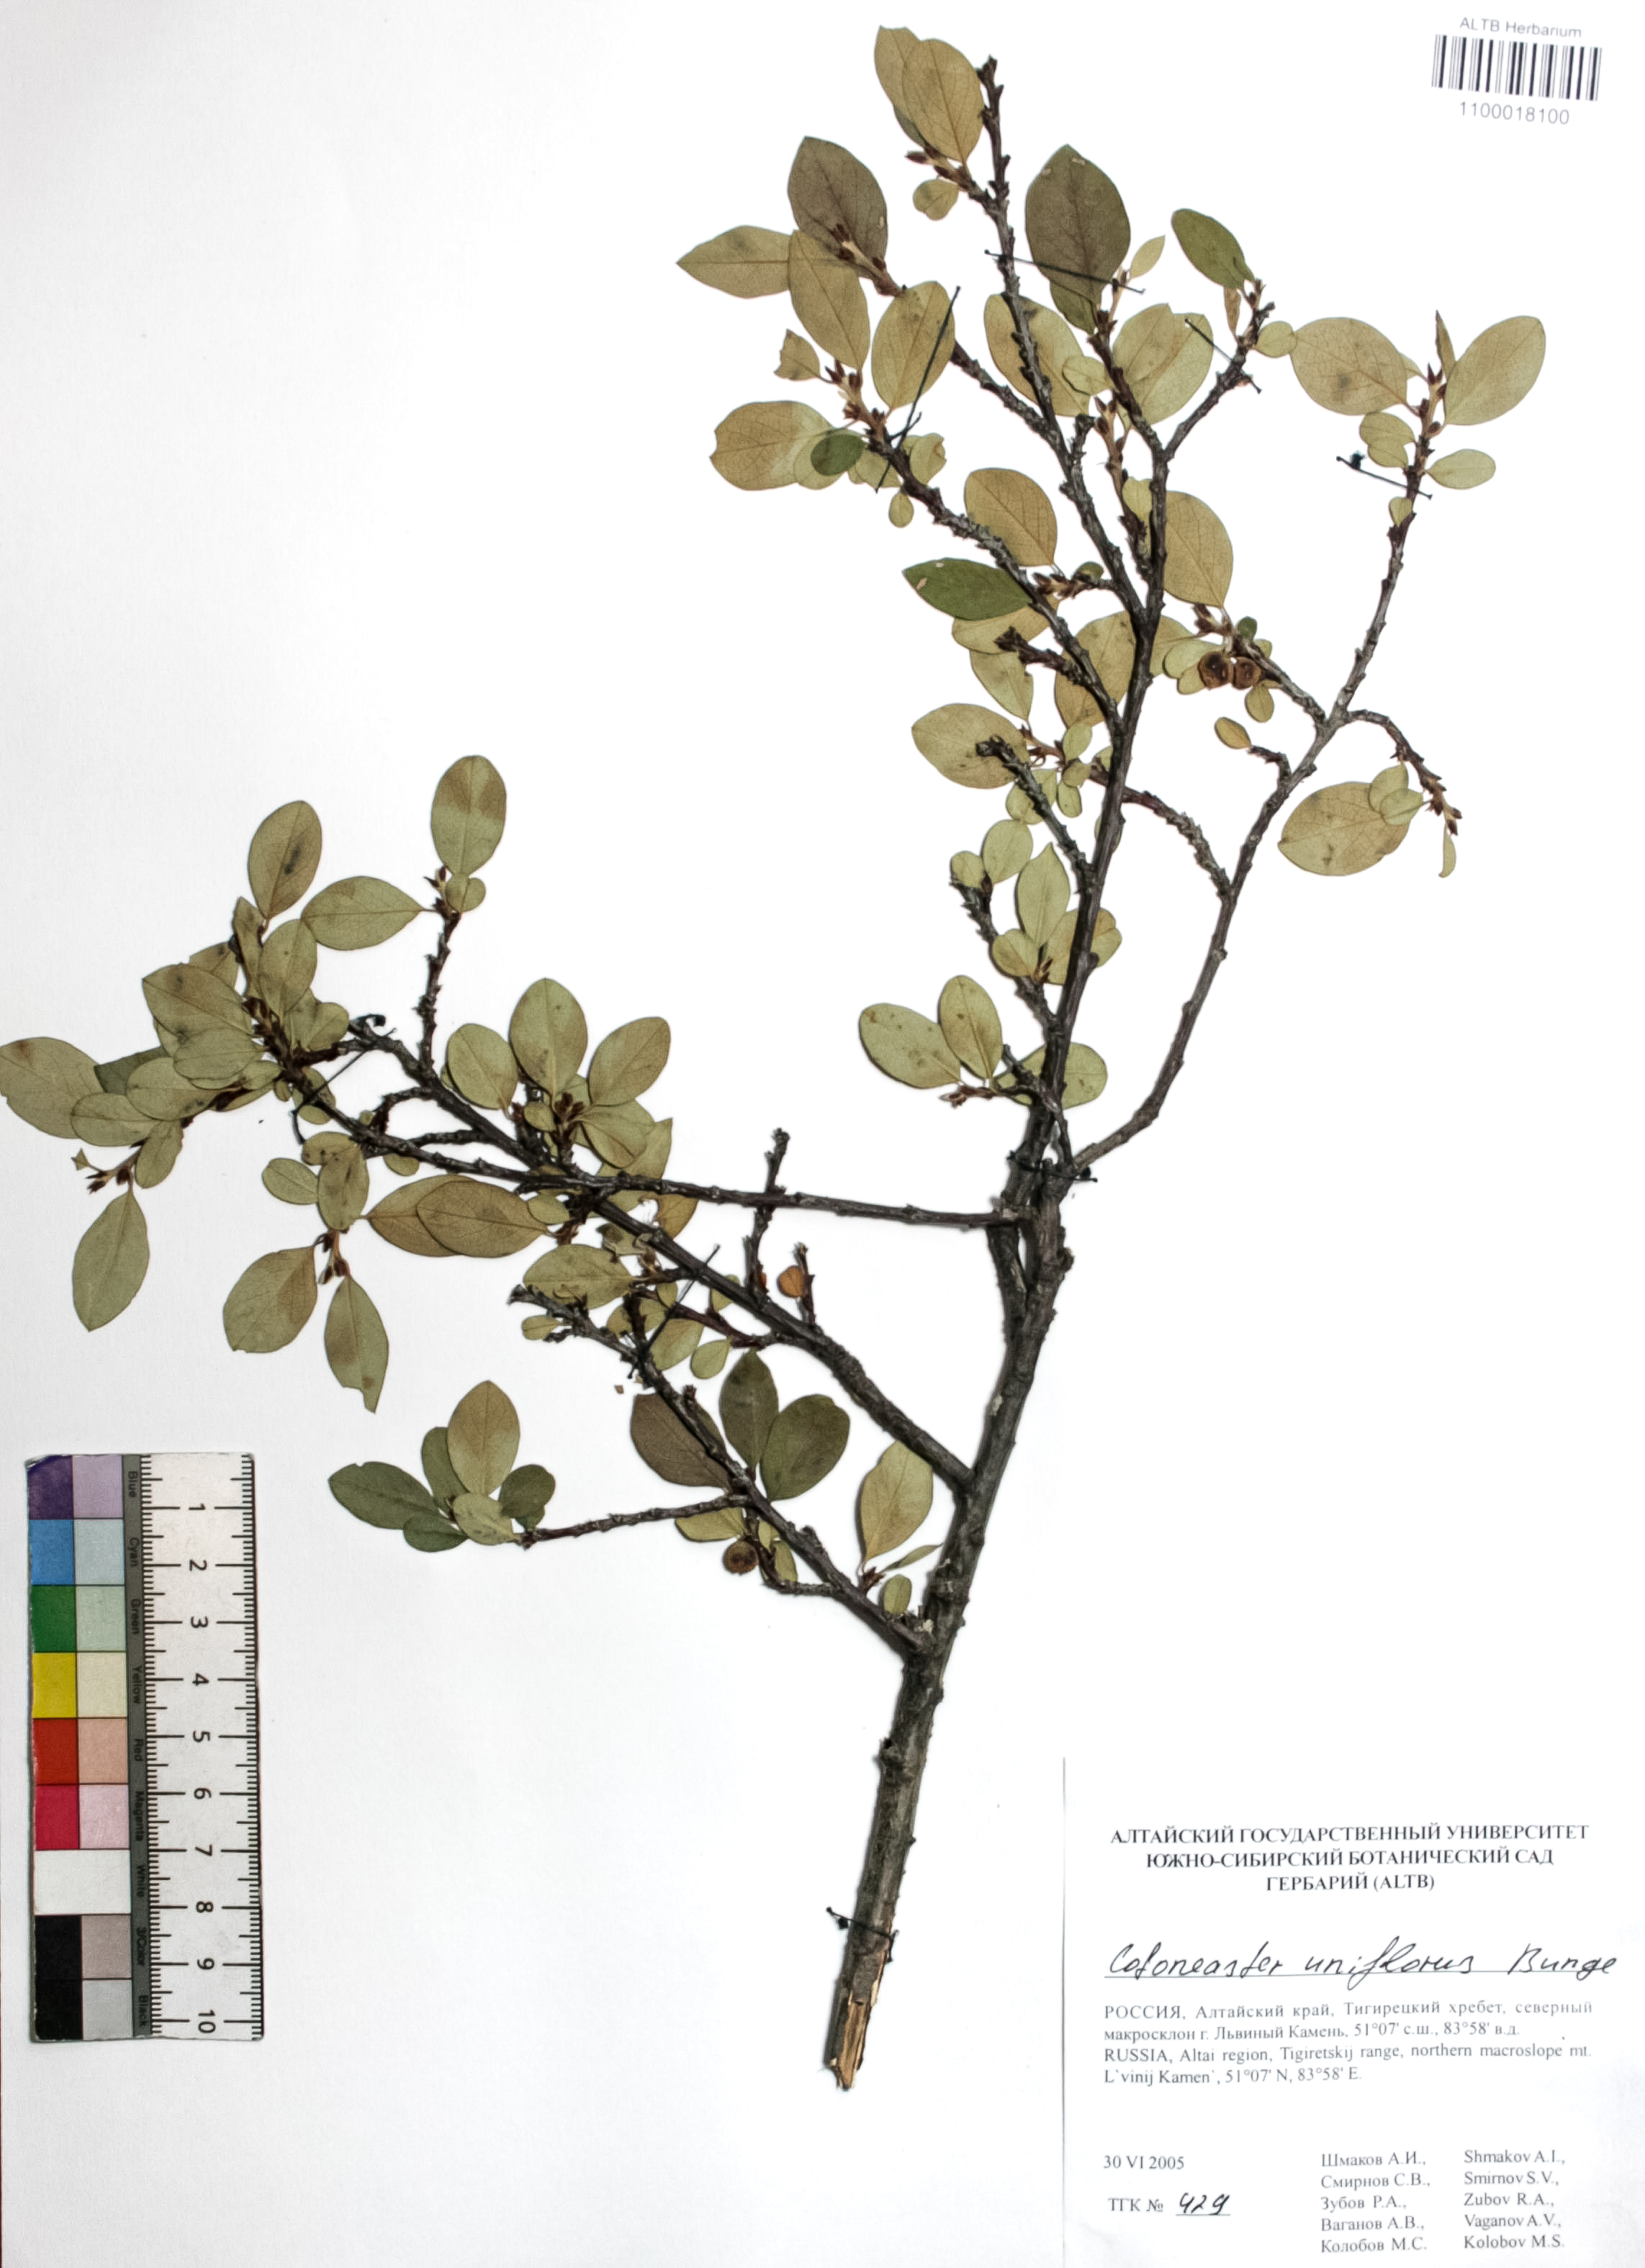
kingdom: Plantae
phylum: Tracheophyta
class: Magnoliopsida
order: Rosales
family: Rosaceae
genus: Cotoneaster
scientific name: Cotoneaster uniflorus
